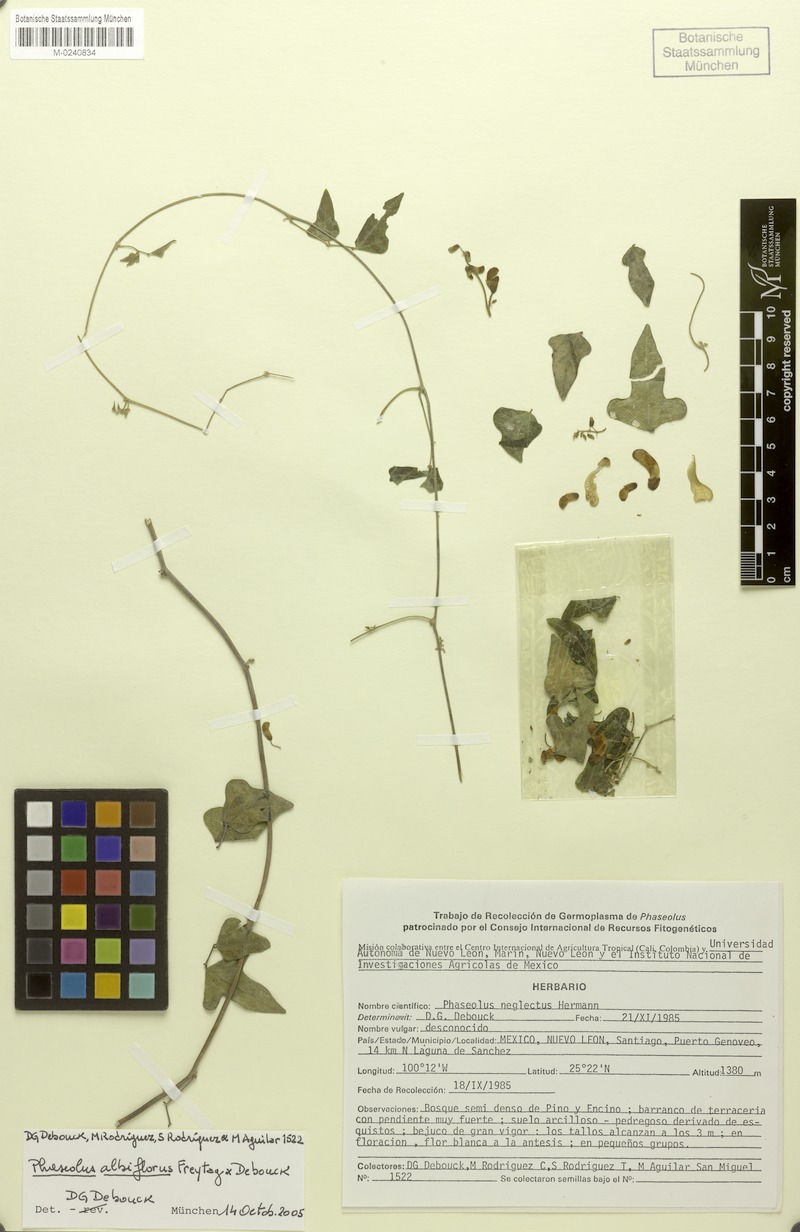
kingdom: Plantae
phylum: Tracheophyta
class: Magnoliopsida
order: Fabales
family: Fabaceae
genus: Phaseolus
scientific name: Phaseolus albiflorus
